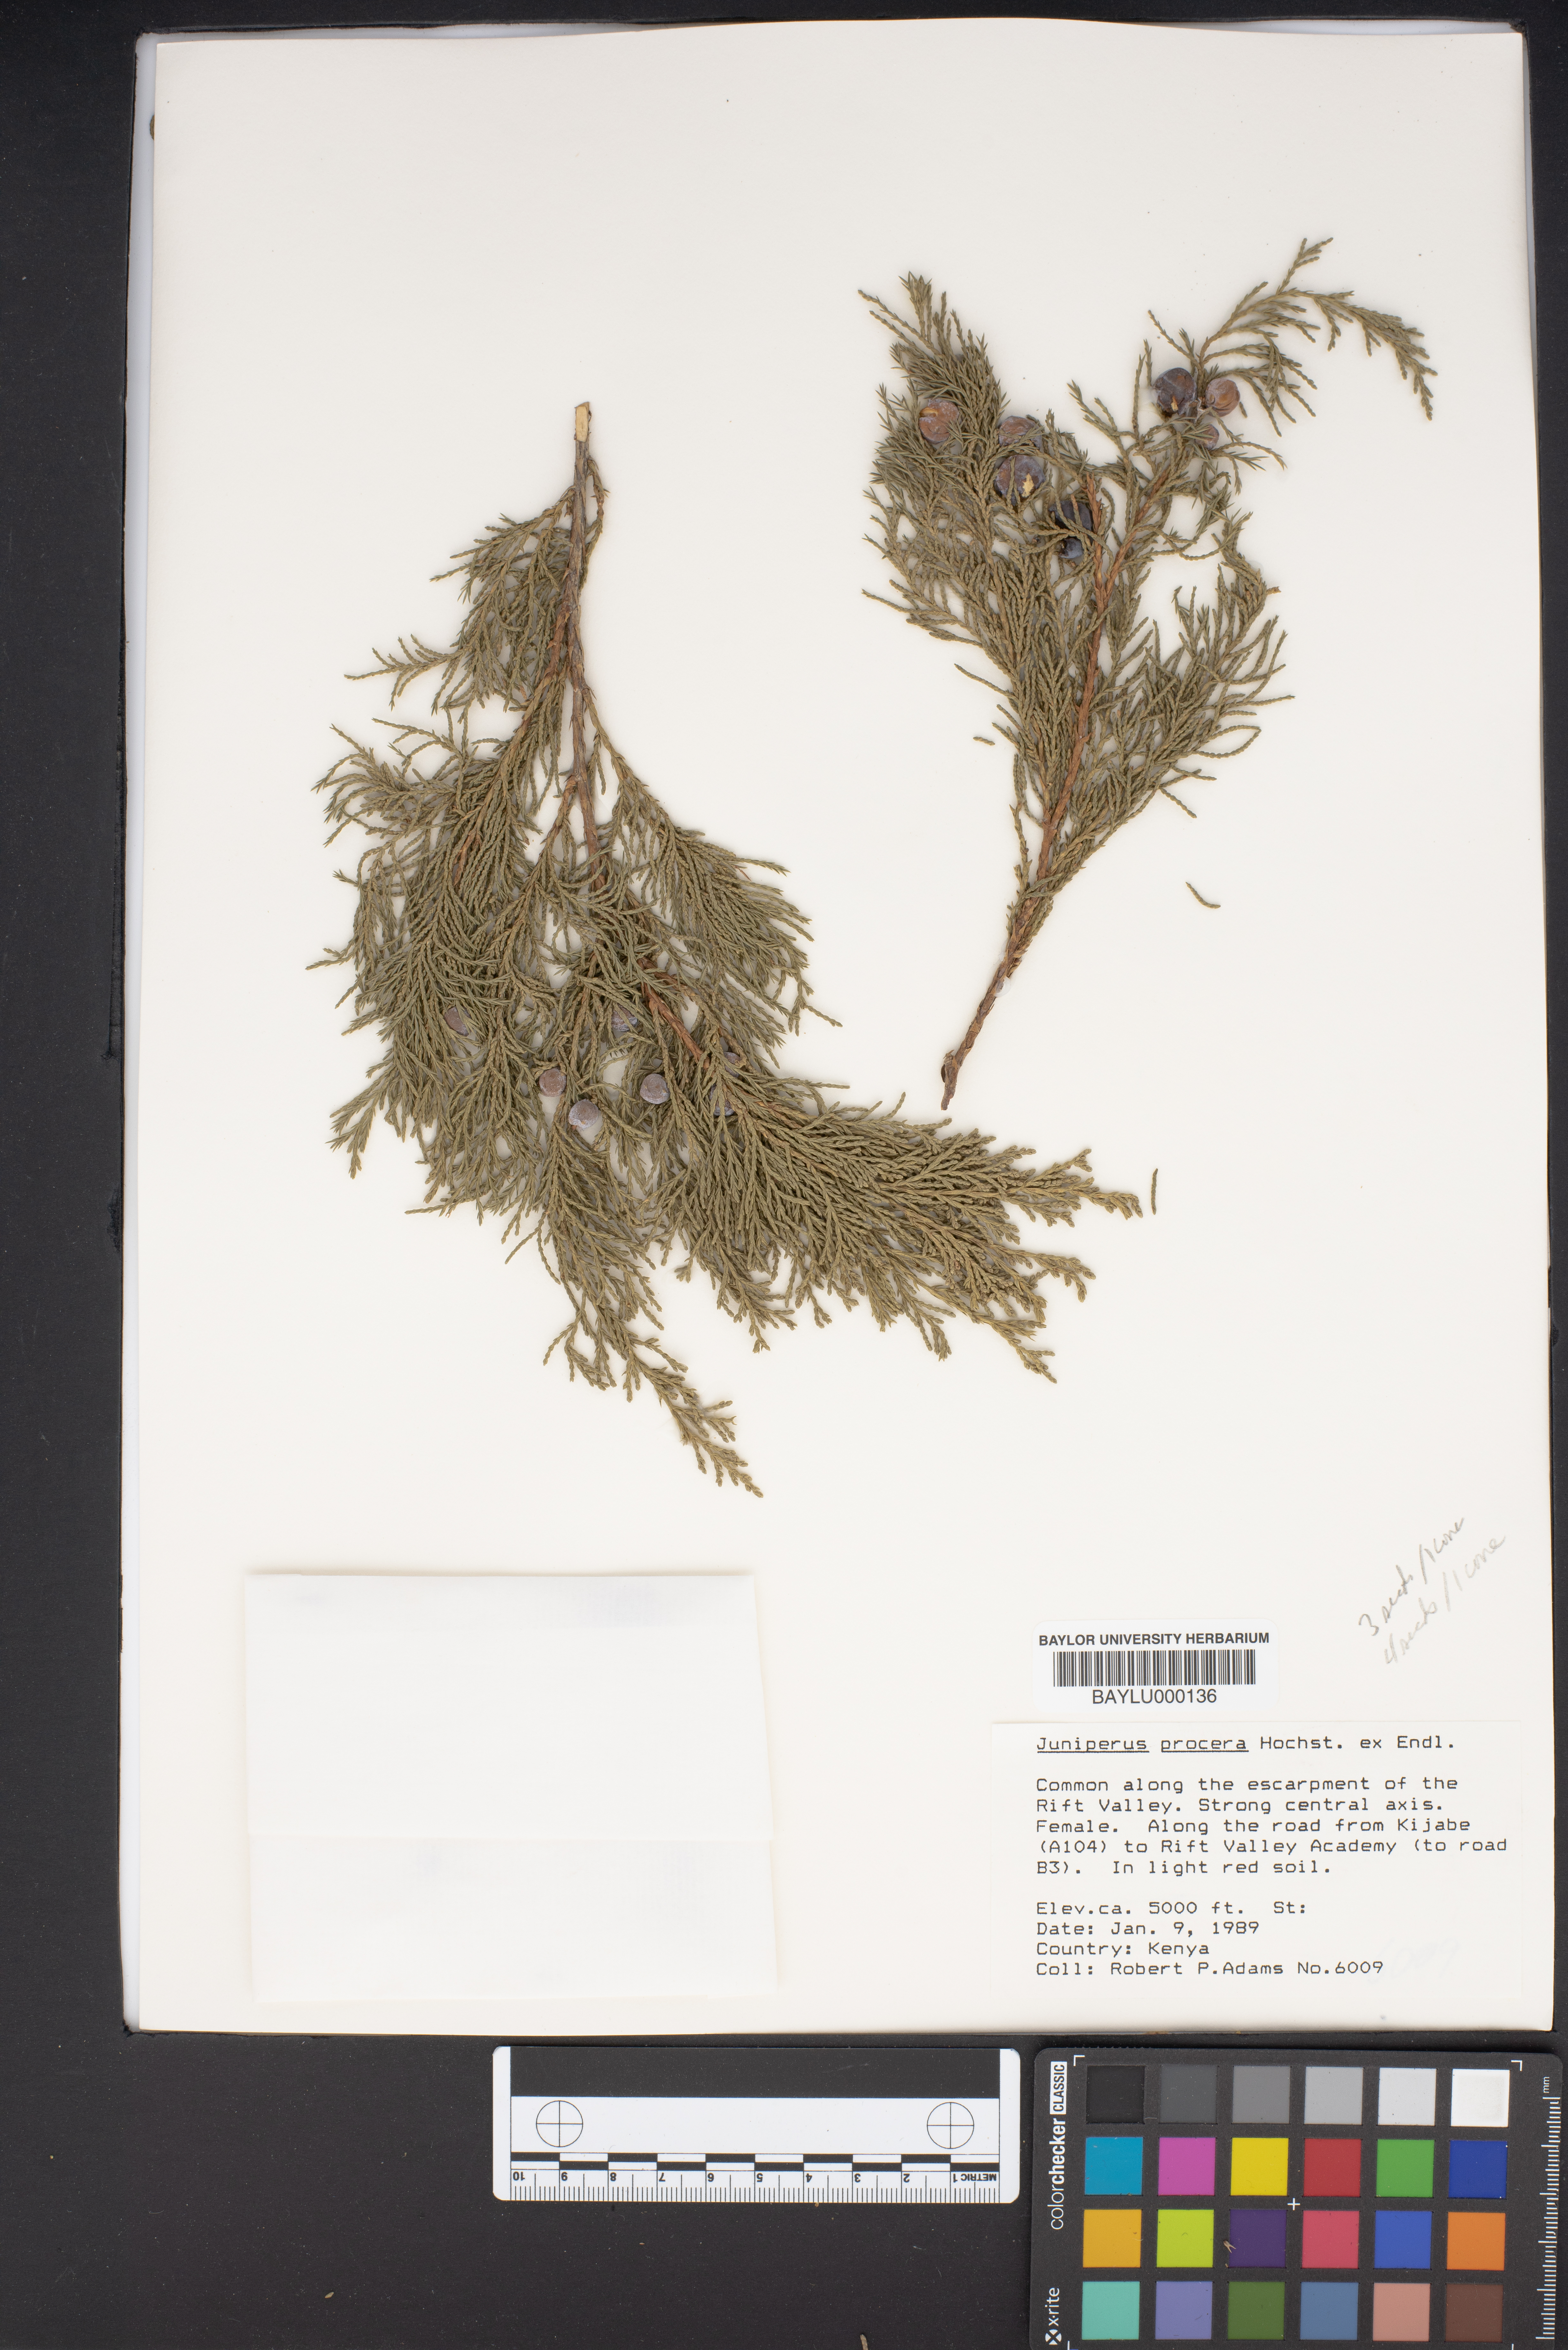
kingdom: Plantae
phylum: Tracheophyta
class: Pinopsida
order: Pinales
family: Cupressaceae
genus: Juniperus
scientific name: Juniperus procera
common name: African juniper
